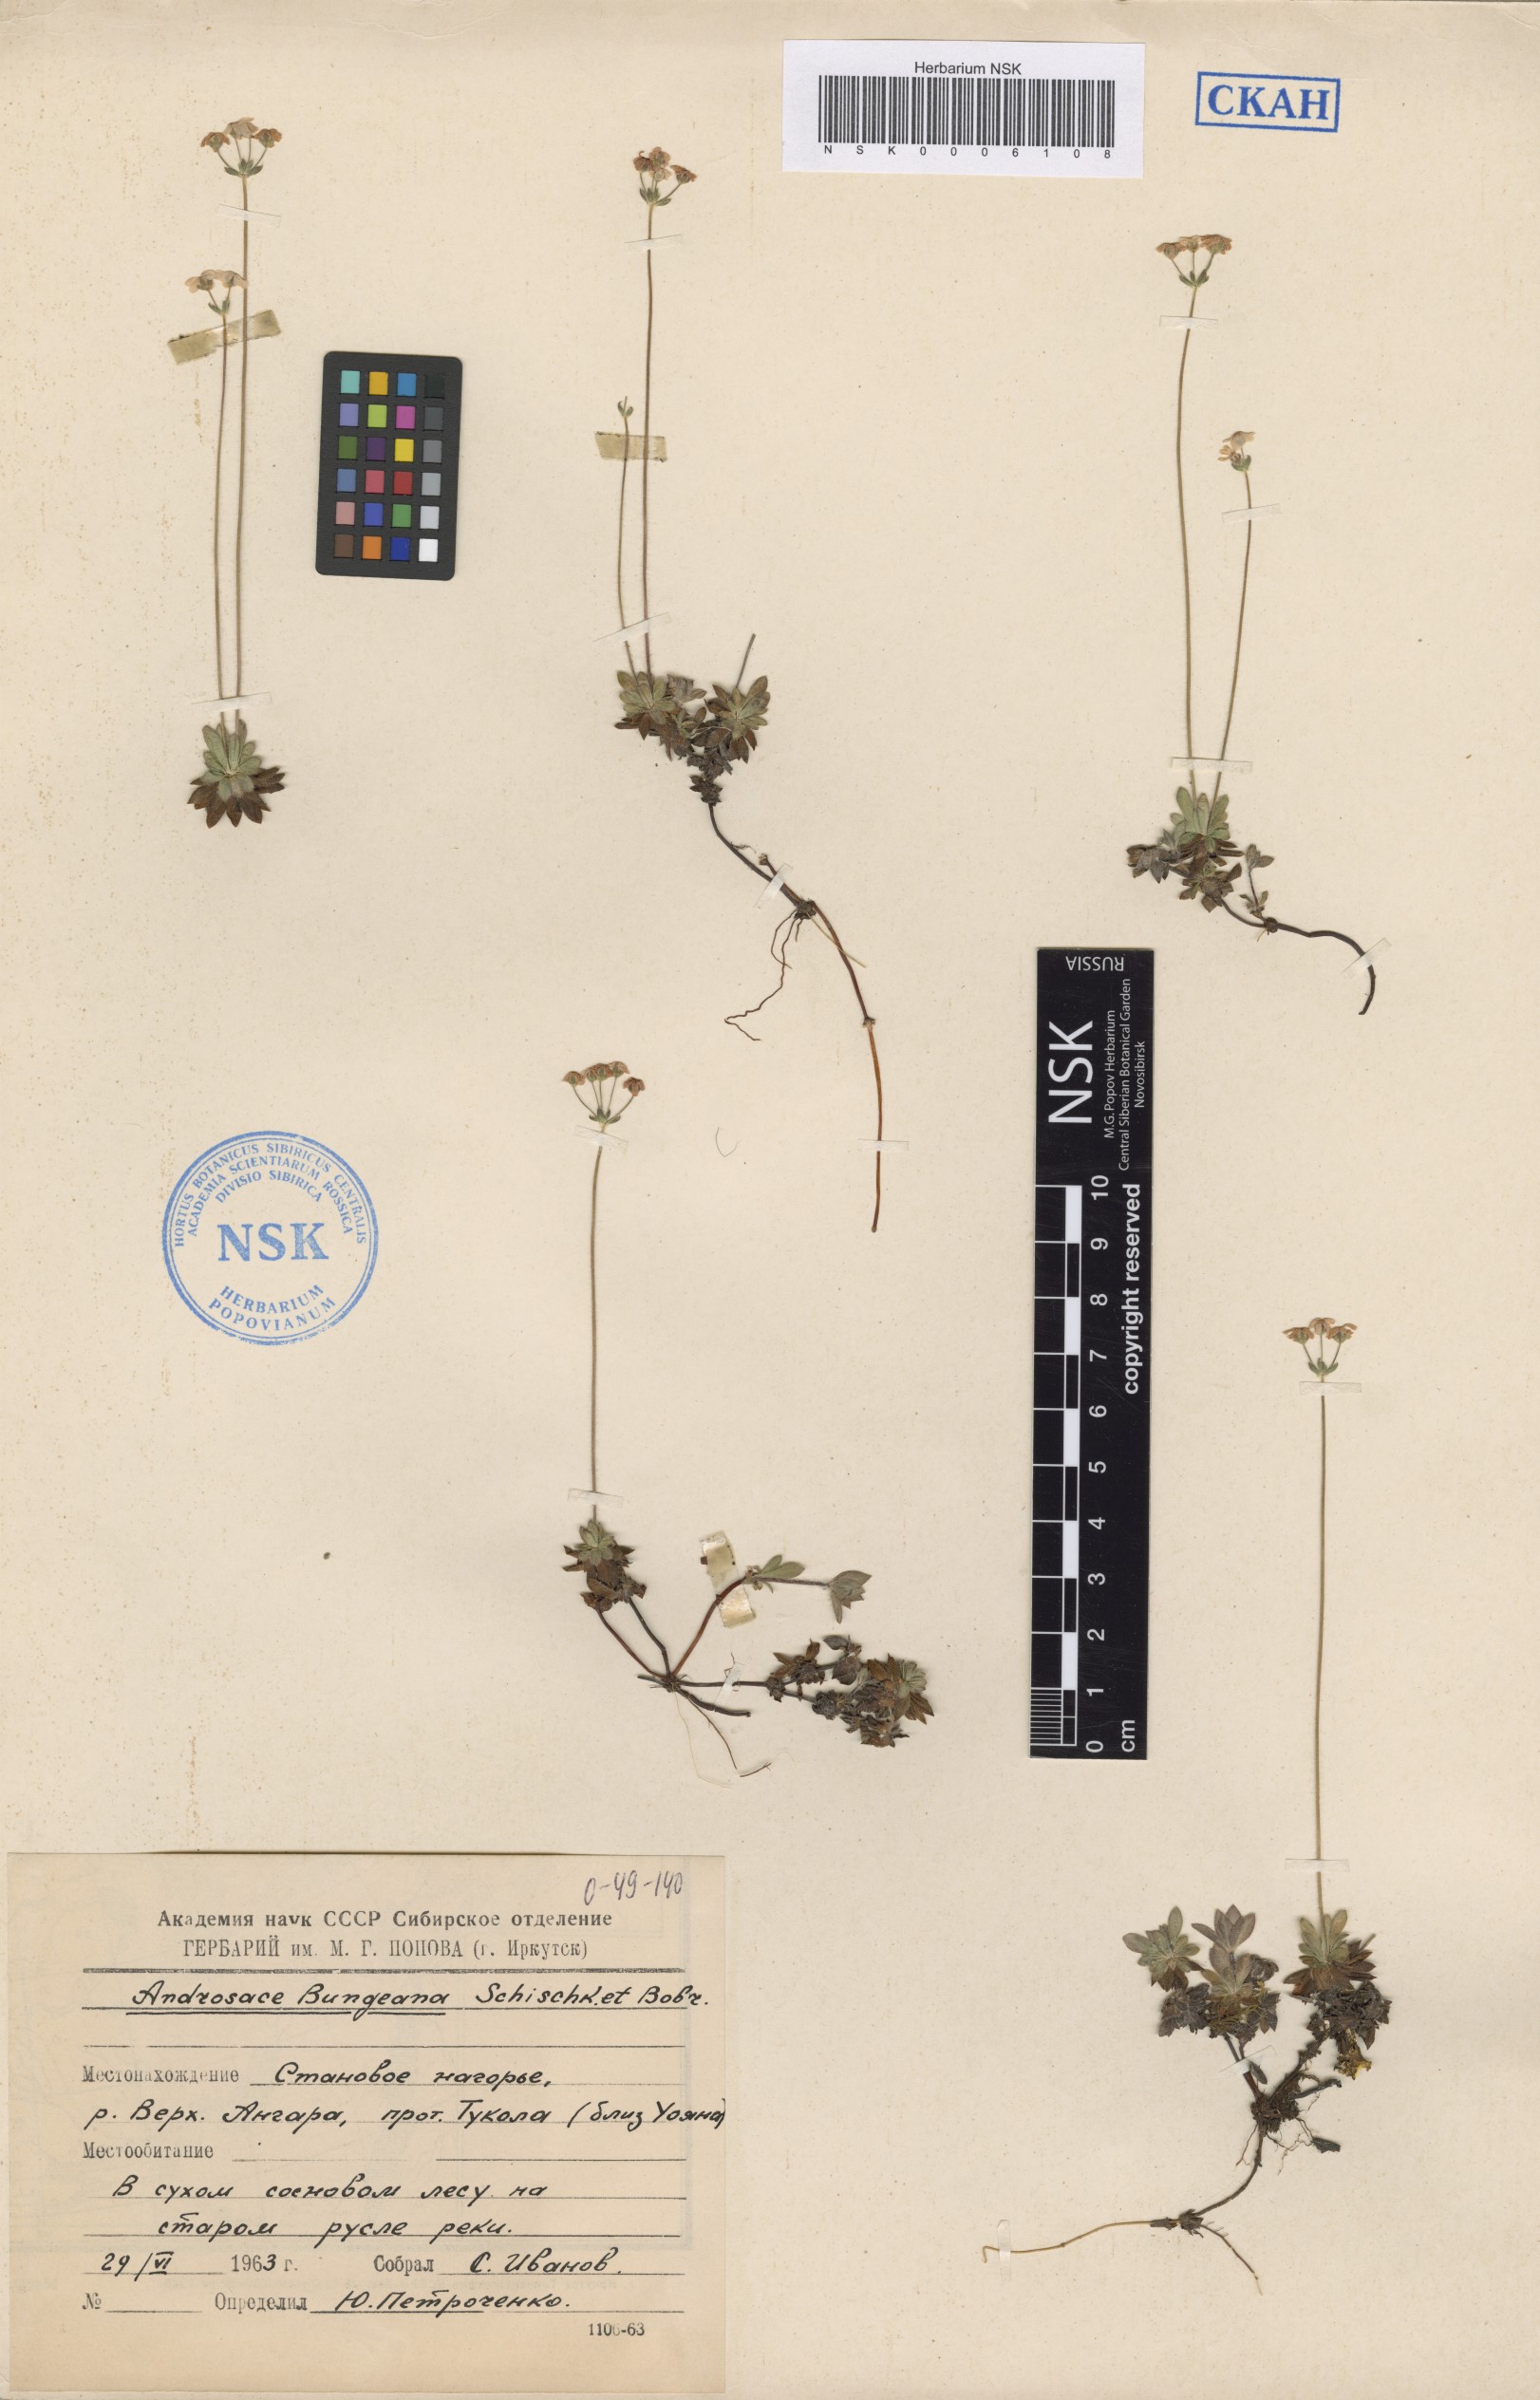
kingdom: Plantae
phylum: Tracheophyta
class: Magnoliopsida
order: Ericales
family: Primulaceae
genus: Androsace
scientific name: Androsace bungeana
